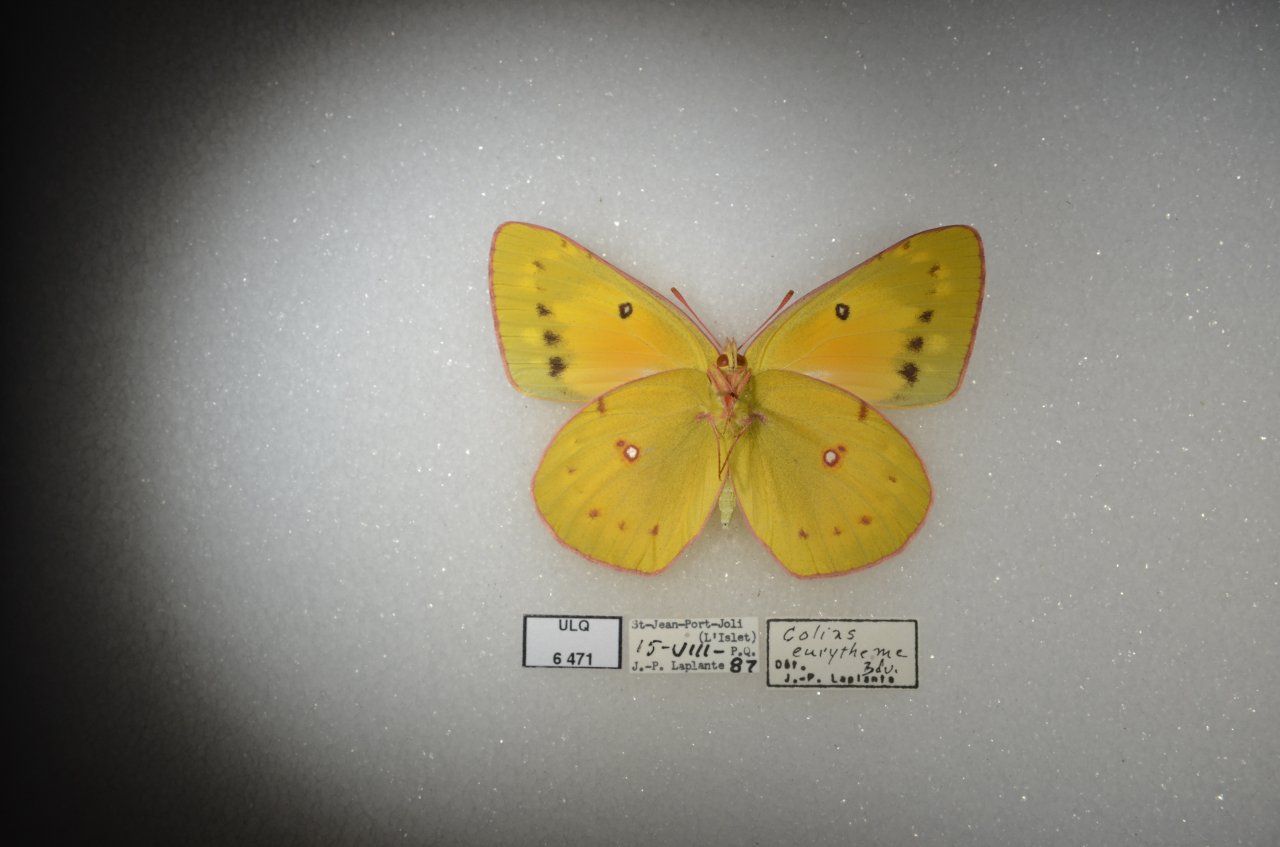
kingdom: Animalia
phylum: Arthropoda
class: Insecta
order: Lepidoptera
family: Pieridae
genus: Colias
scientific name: Colias eurytheme
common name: Orange Sulphur
